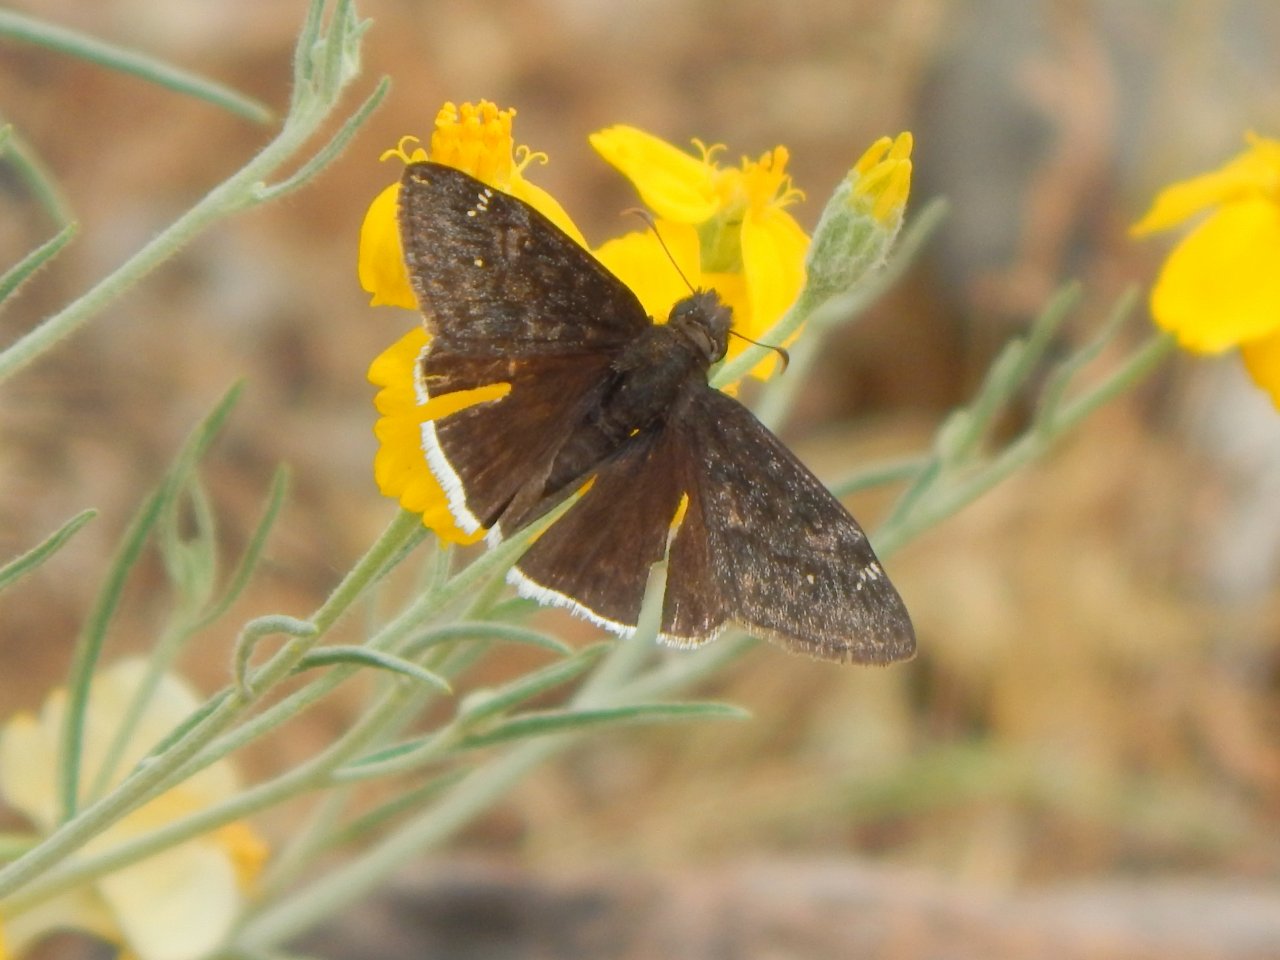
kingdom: Animalia
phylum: Arthropoda
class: Insecta
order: Lepidoptera
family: Hesperiidae
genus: Erynnis
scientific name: Erynnis funeralis
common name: Funereal Duskywing
